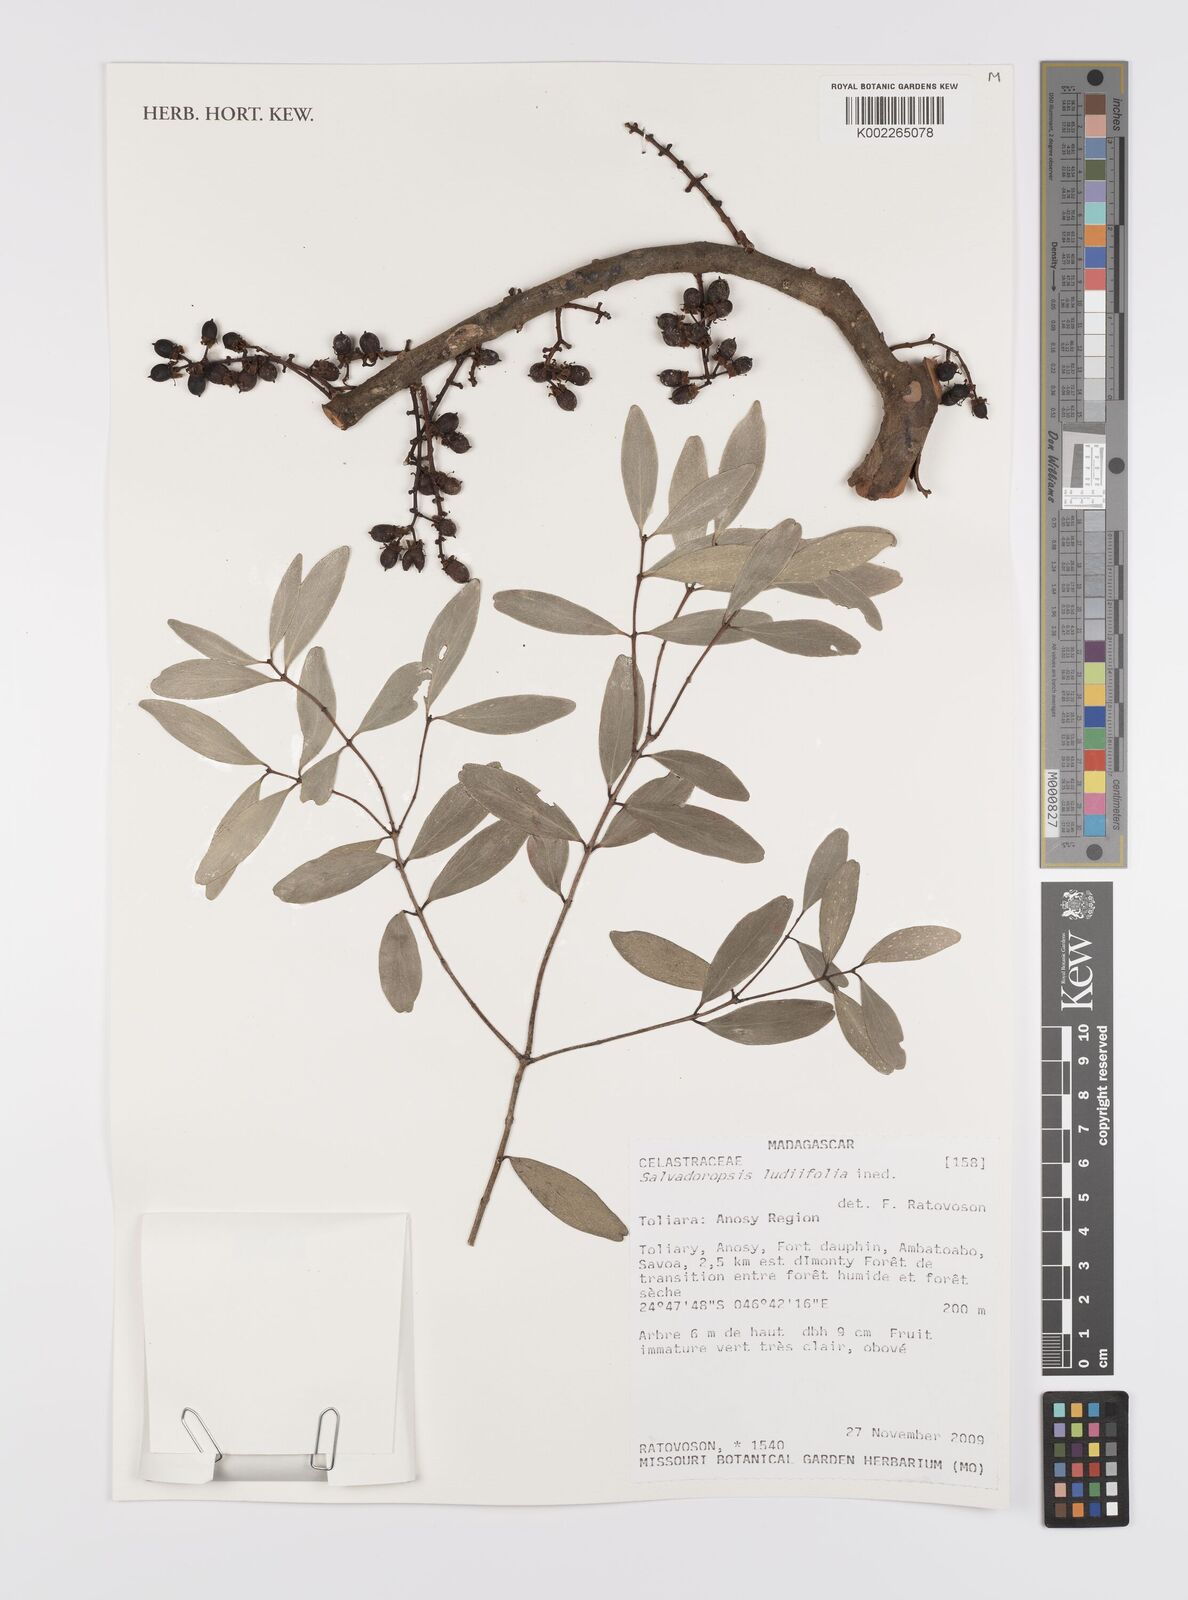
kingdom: Plantae
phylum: Tracheophyta
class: Magnoliopsida
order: Celastrales
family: Celastraceae
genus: Salvadoropsis
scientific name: Salvadoropsis
